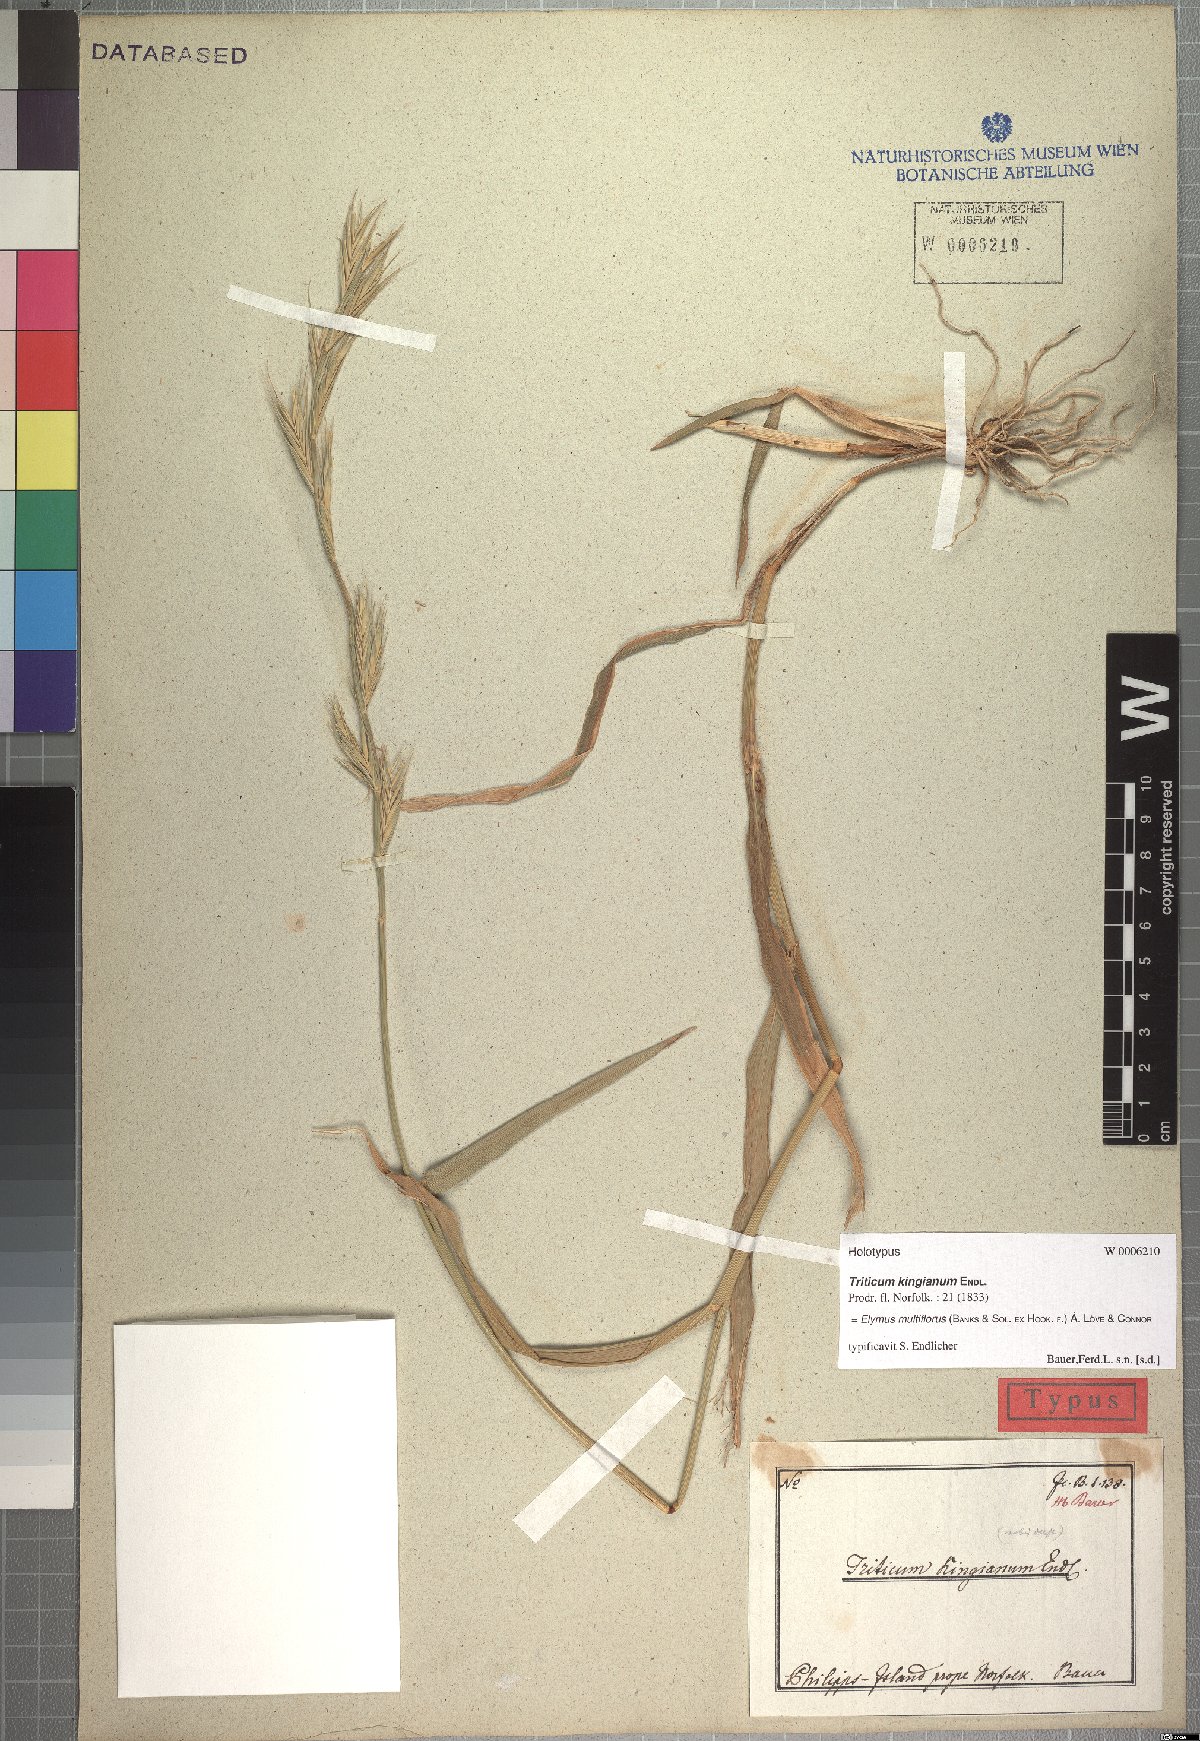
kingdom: Plantae
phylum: Tracheophyta
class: Liliopsida
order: Poales
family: Poaceae
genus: Anthosachne
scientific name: Anthosachne kingiana
